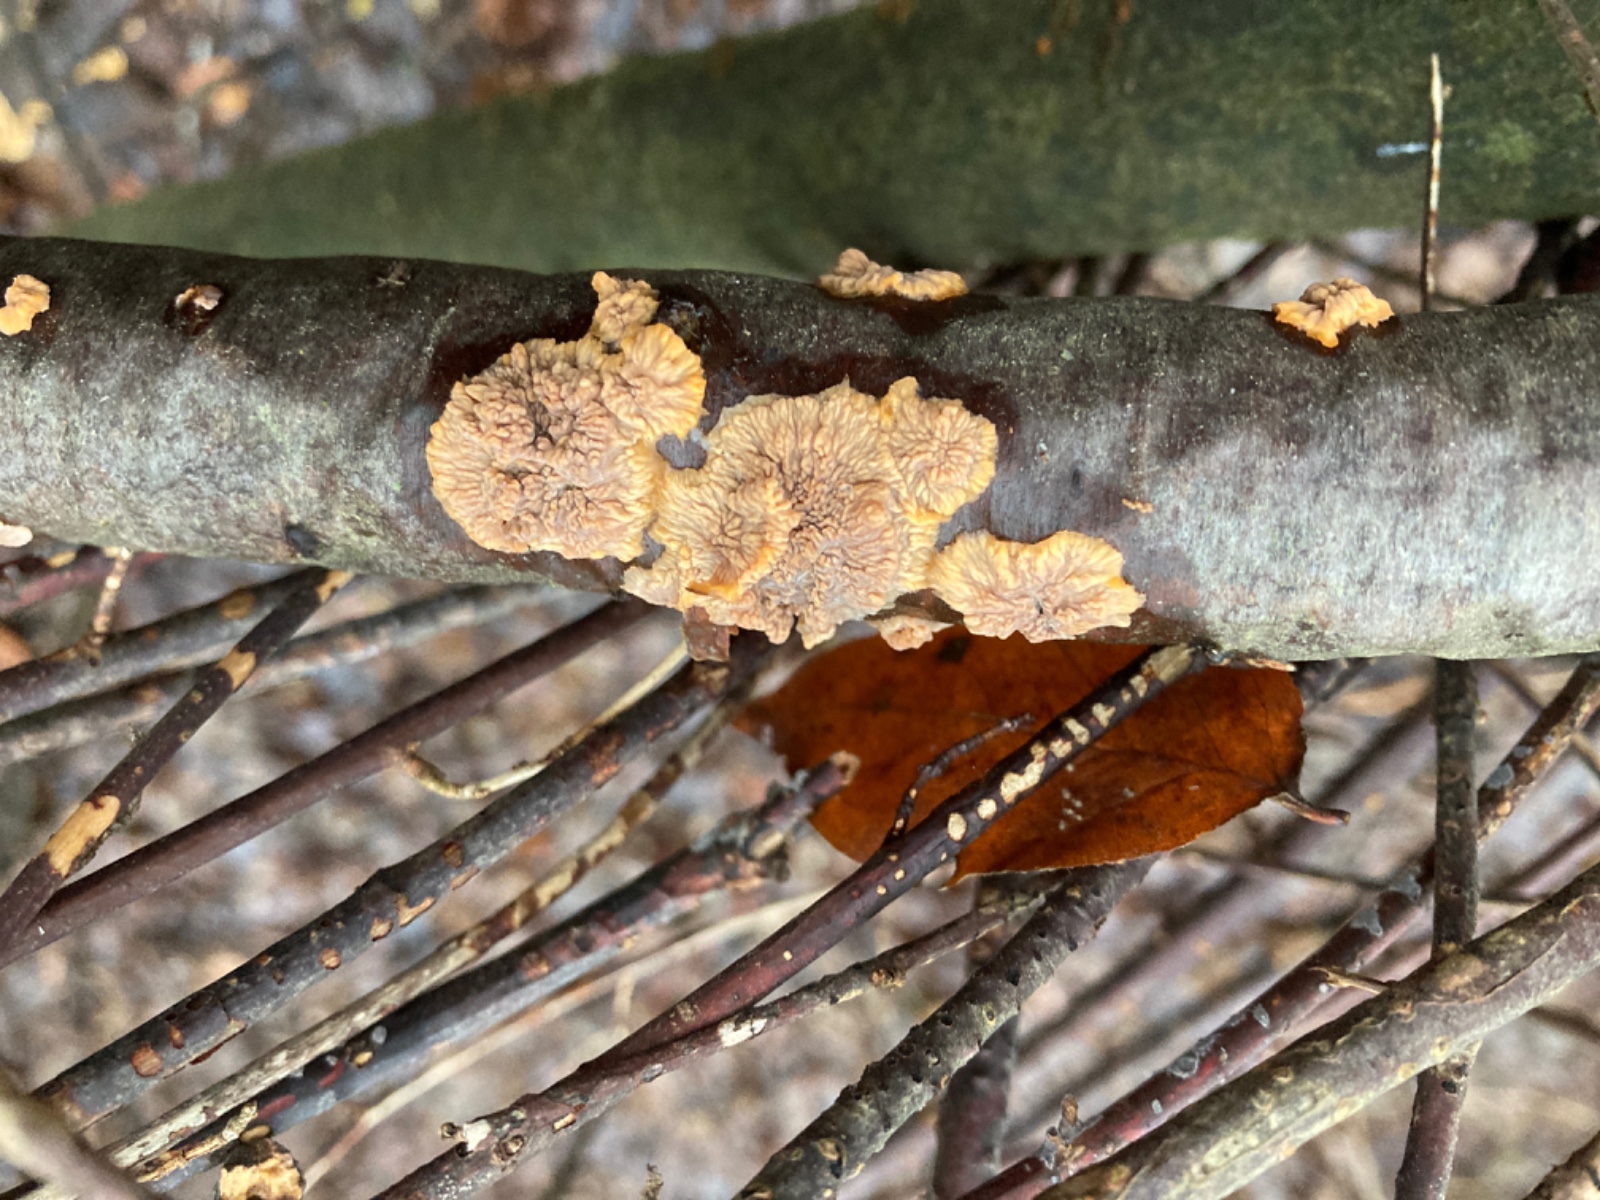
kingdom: Fungi
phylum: Basidiomycota
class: Agaricomycetes
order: Polyporales
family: Meruliaceae
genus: Phlebia
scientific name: Phlebia radiata
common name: stråle-åresvamp
